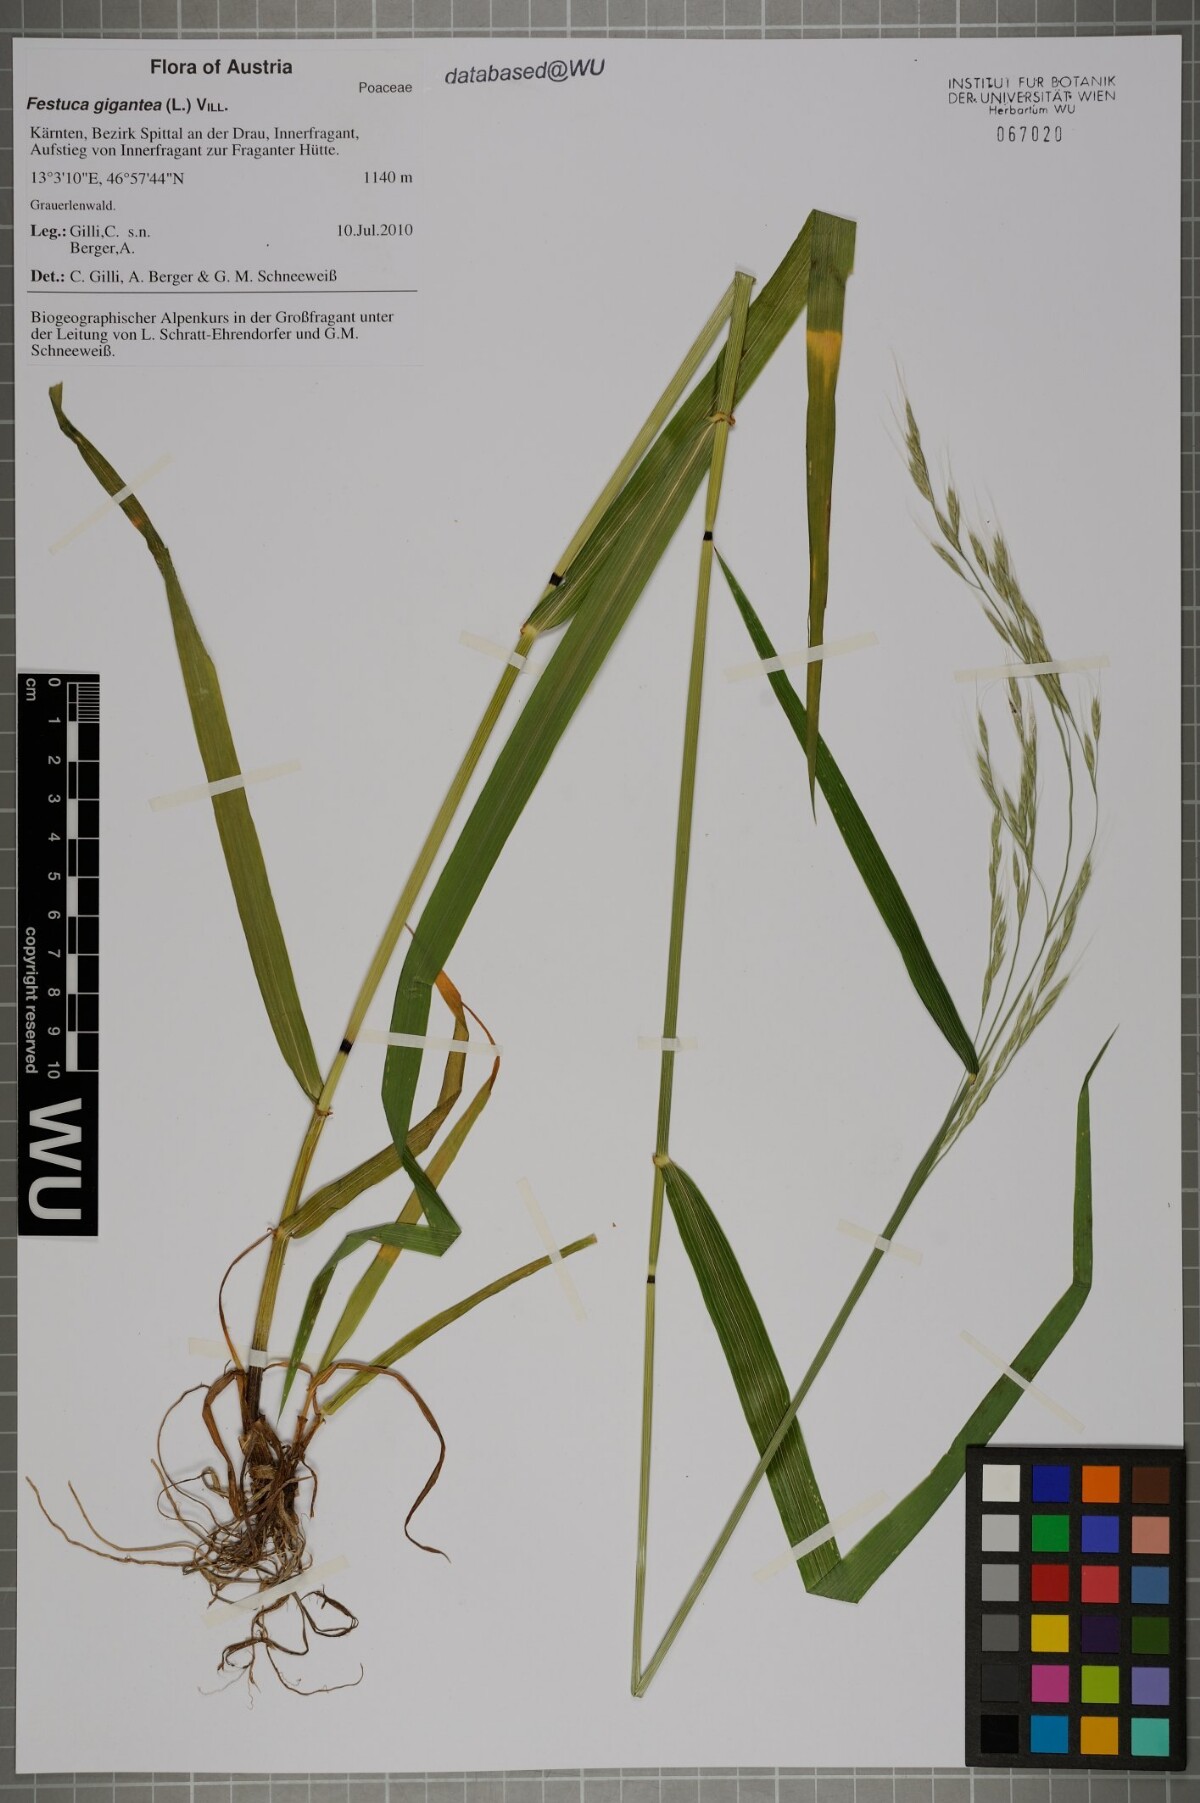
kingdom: Plantae
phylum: Tracheophyta
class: Liliopsida
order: Poales
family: Poaceae
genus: Lolium
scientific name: Lolium giganteum
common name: Giant fescue
